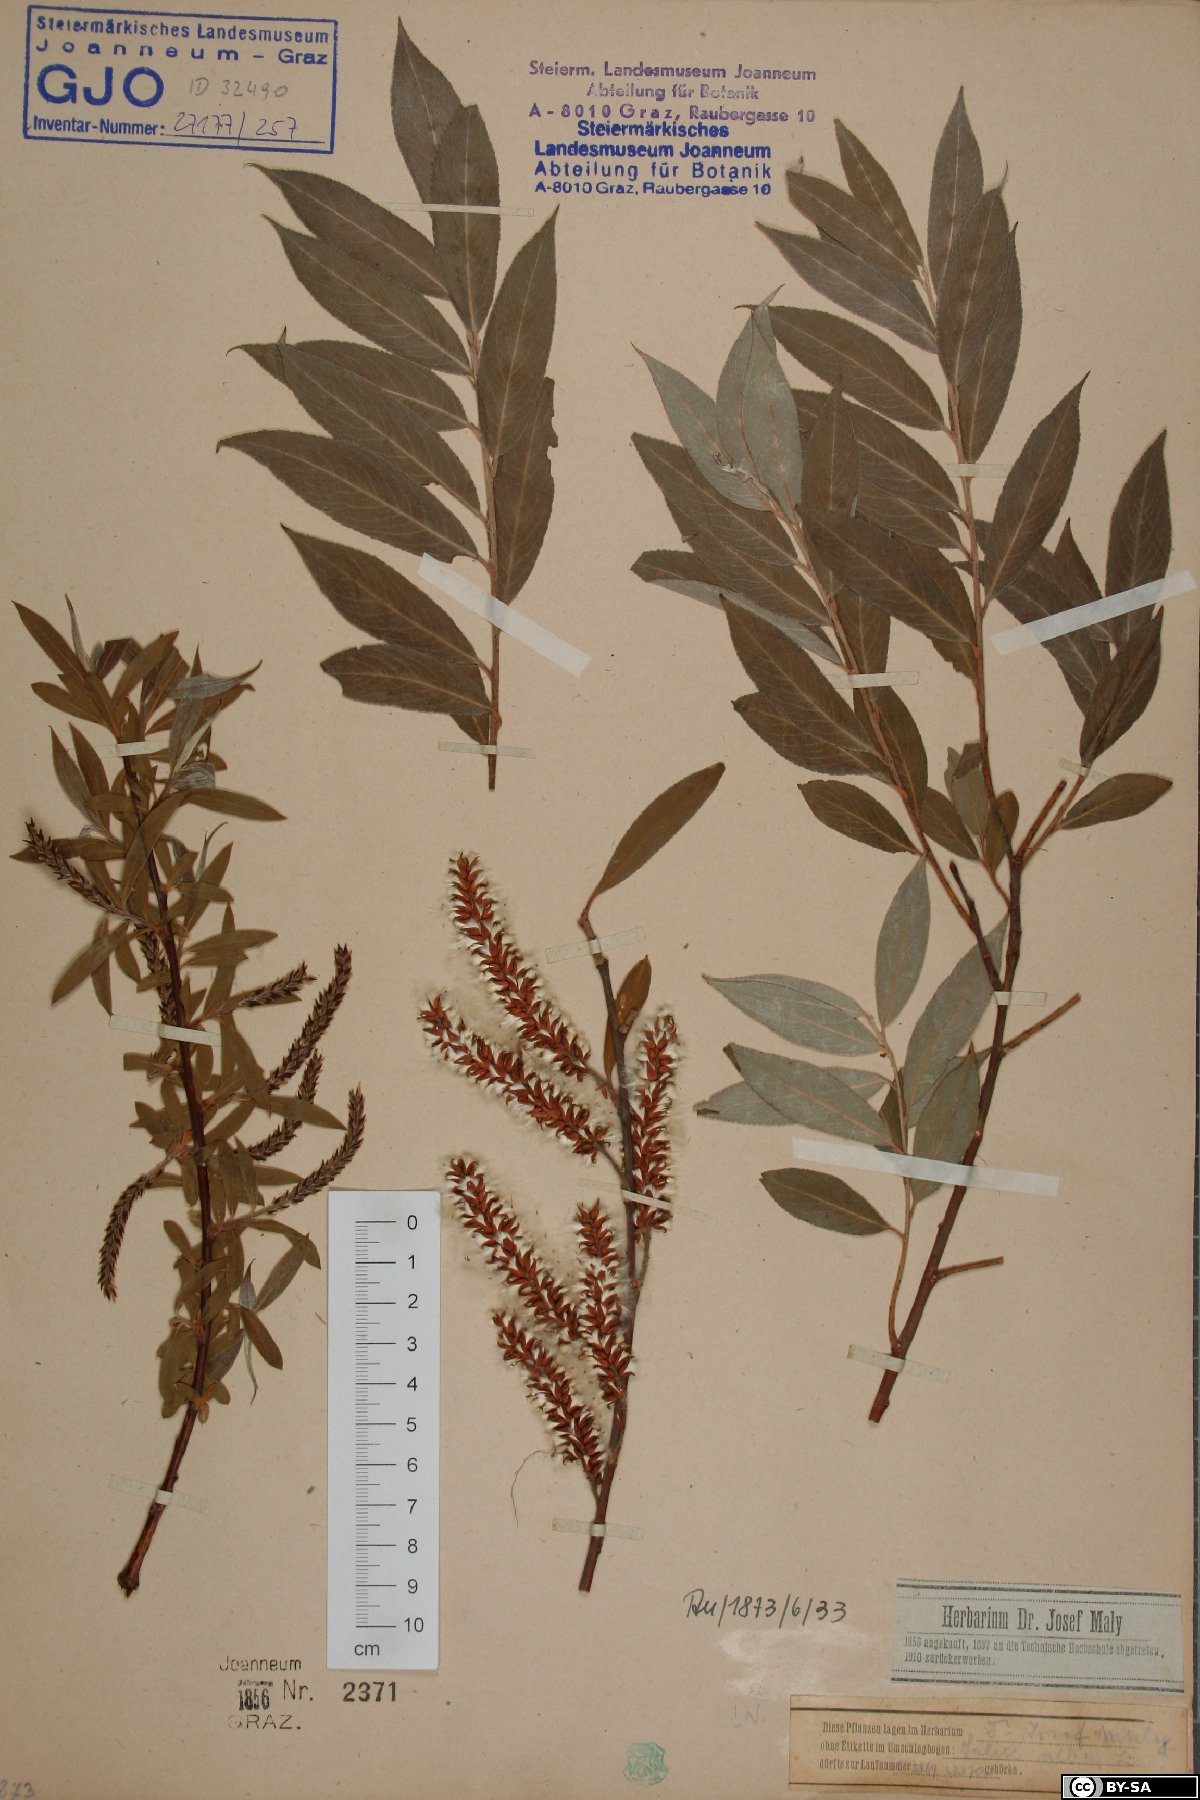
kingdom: Plantae
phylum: Tracheophyta
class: Magnoliopsida
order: Malpighiales
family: Salicaceae
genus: Salix
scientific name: Salix alba
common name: White willow
